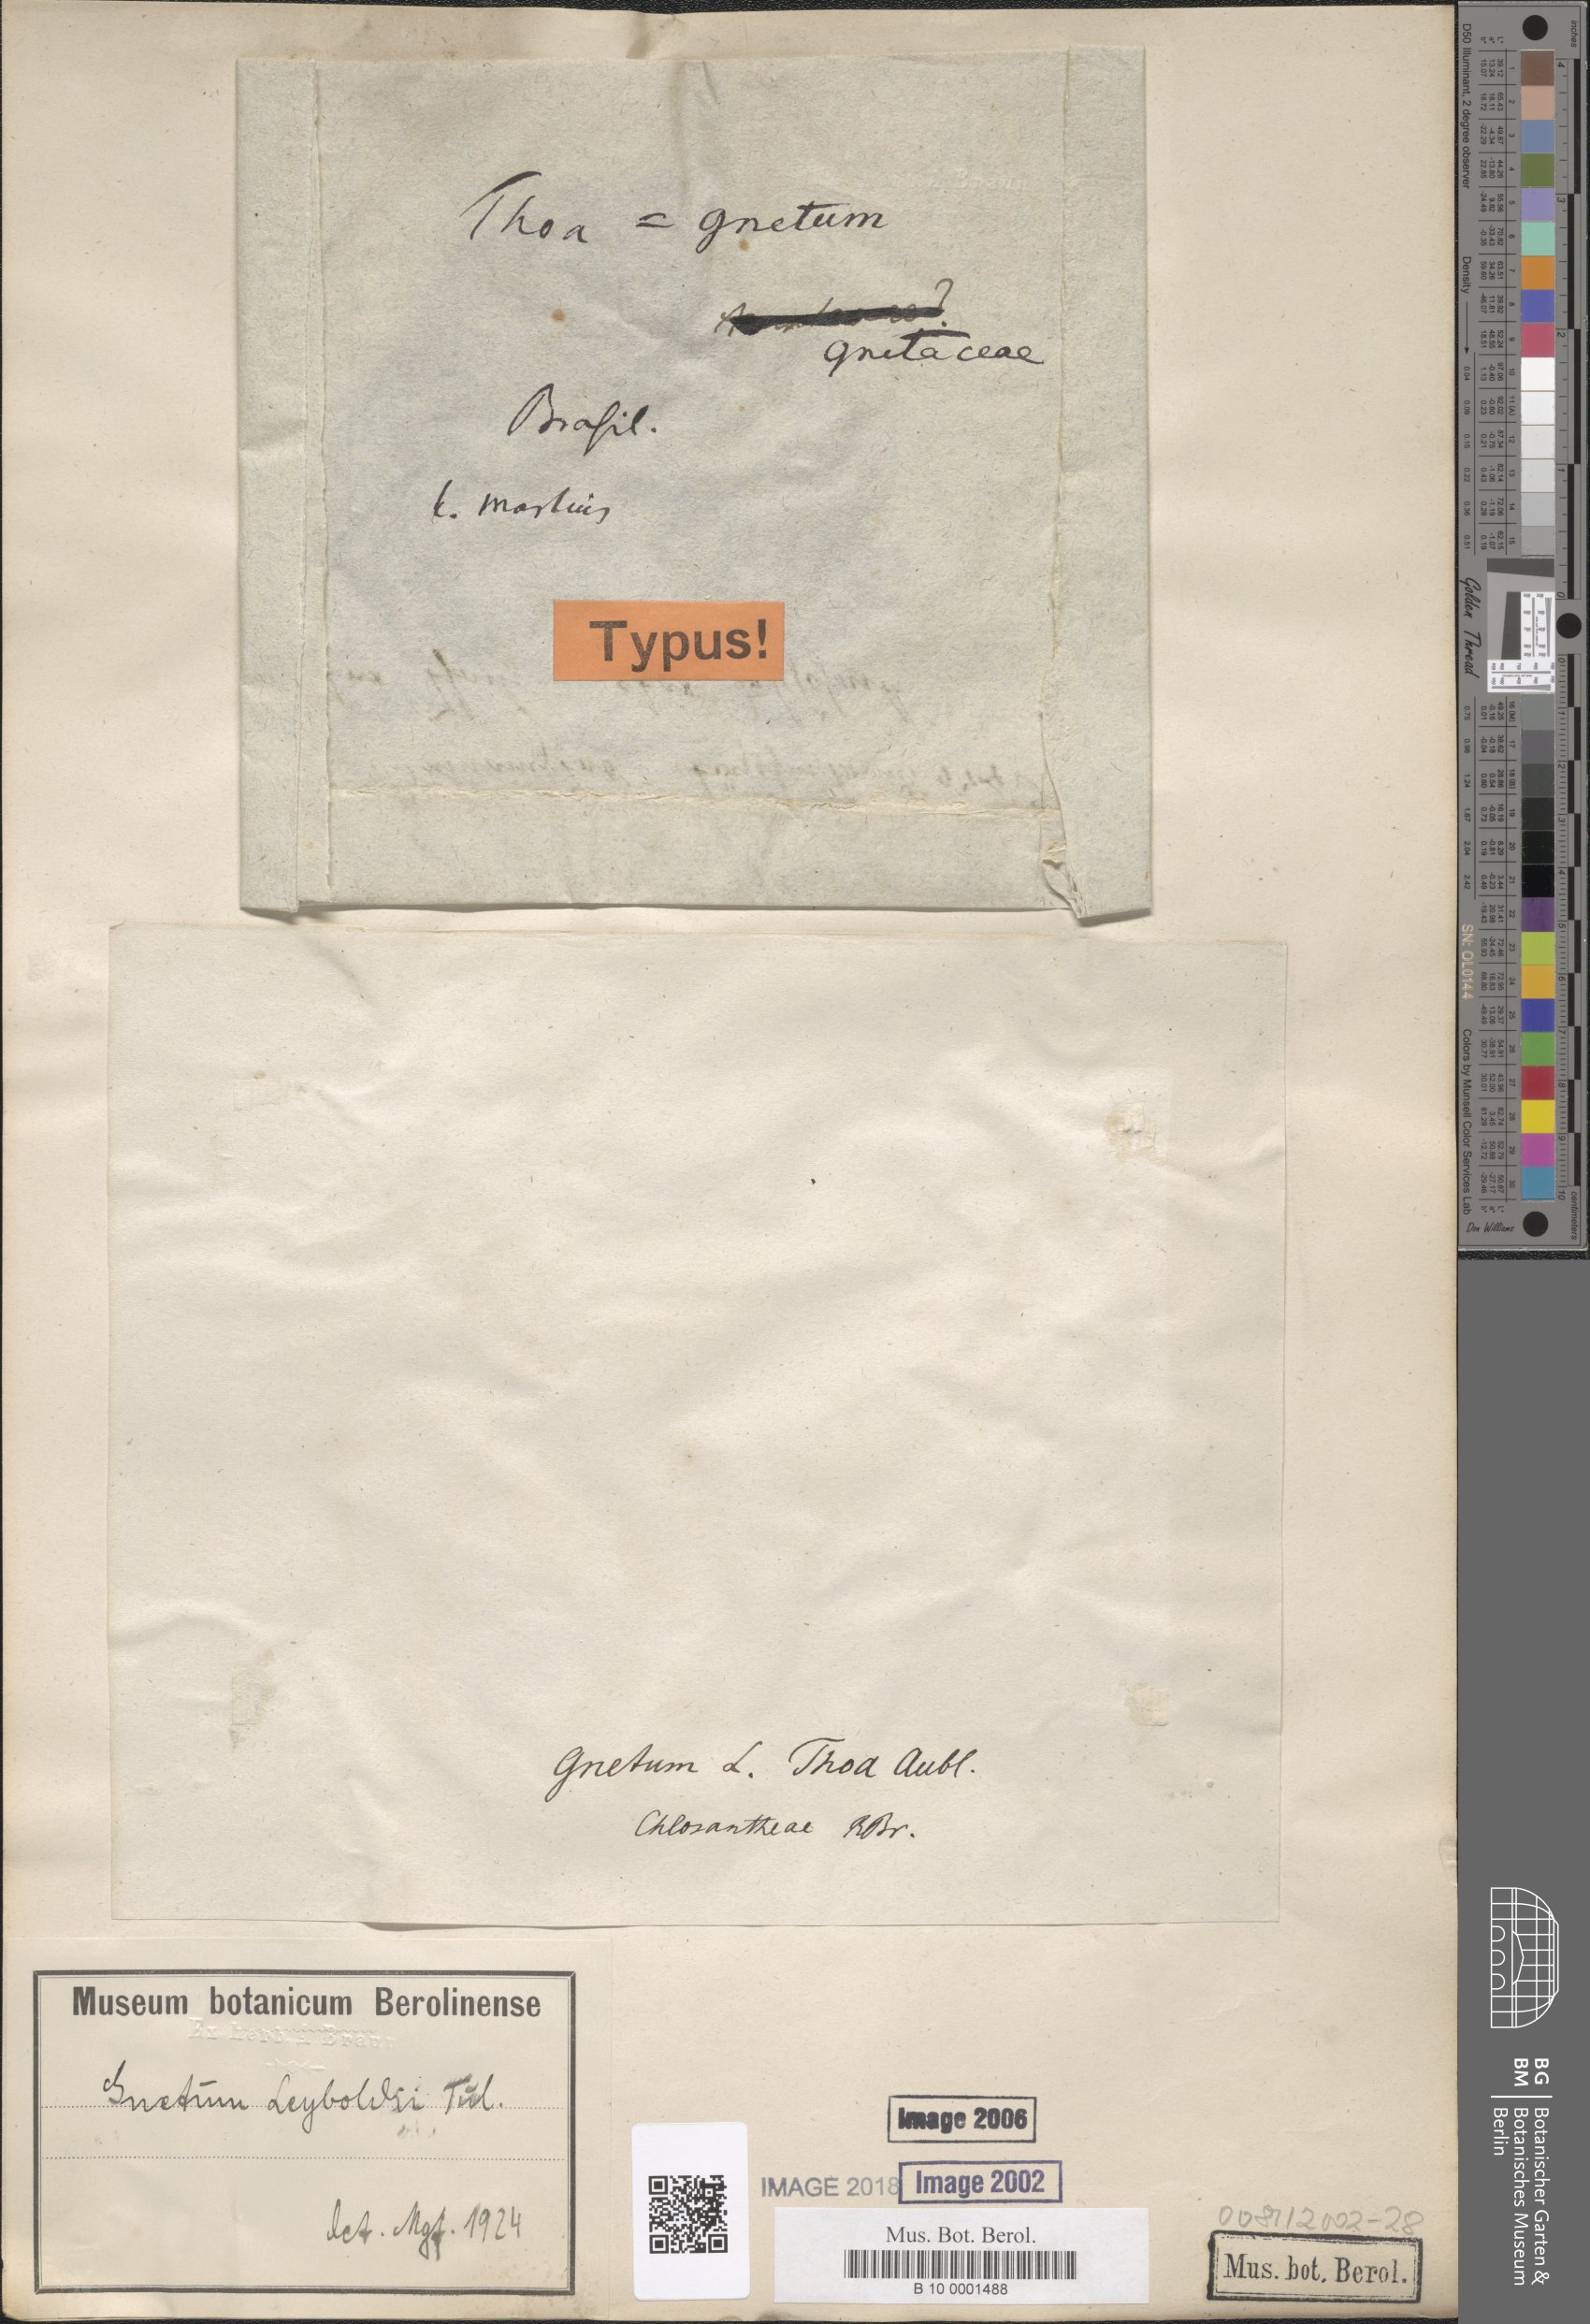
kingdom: Plantae
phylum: Tracheophyta
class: Gnetopsida
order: Gnetales
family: Gnetaceae
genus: Gnetum
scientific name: Gnetum leyboldii
